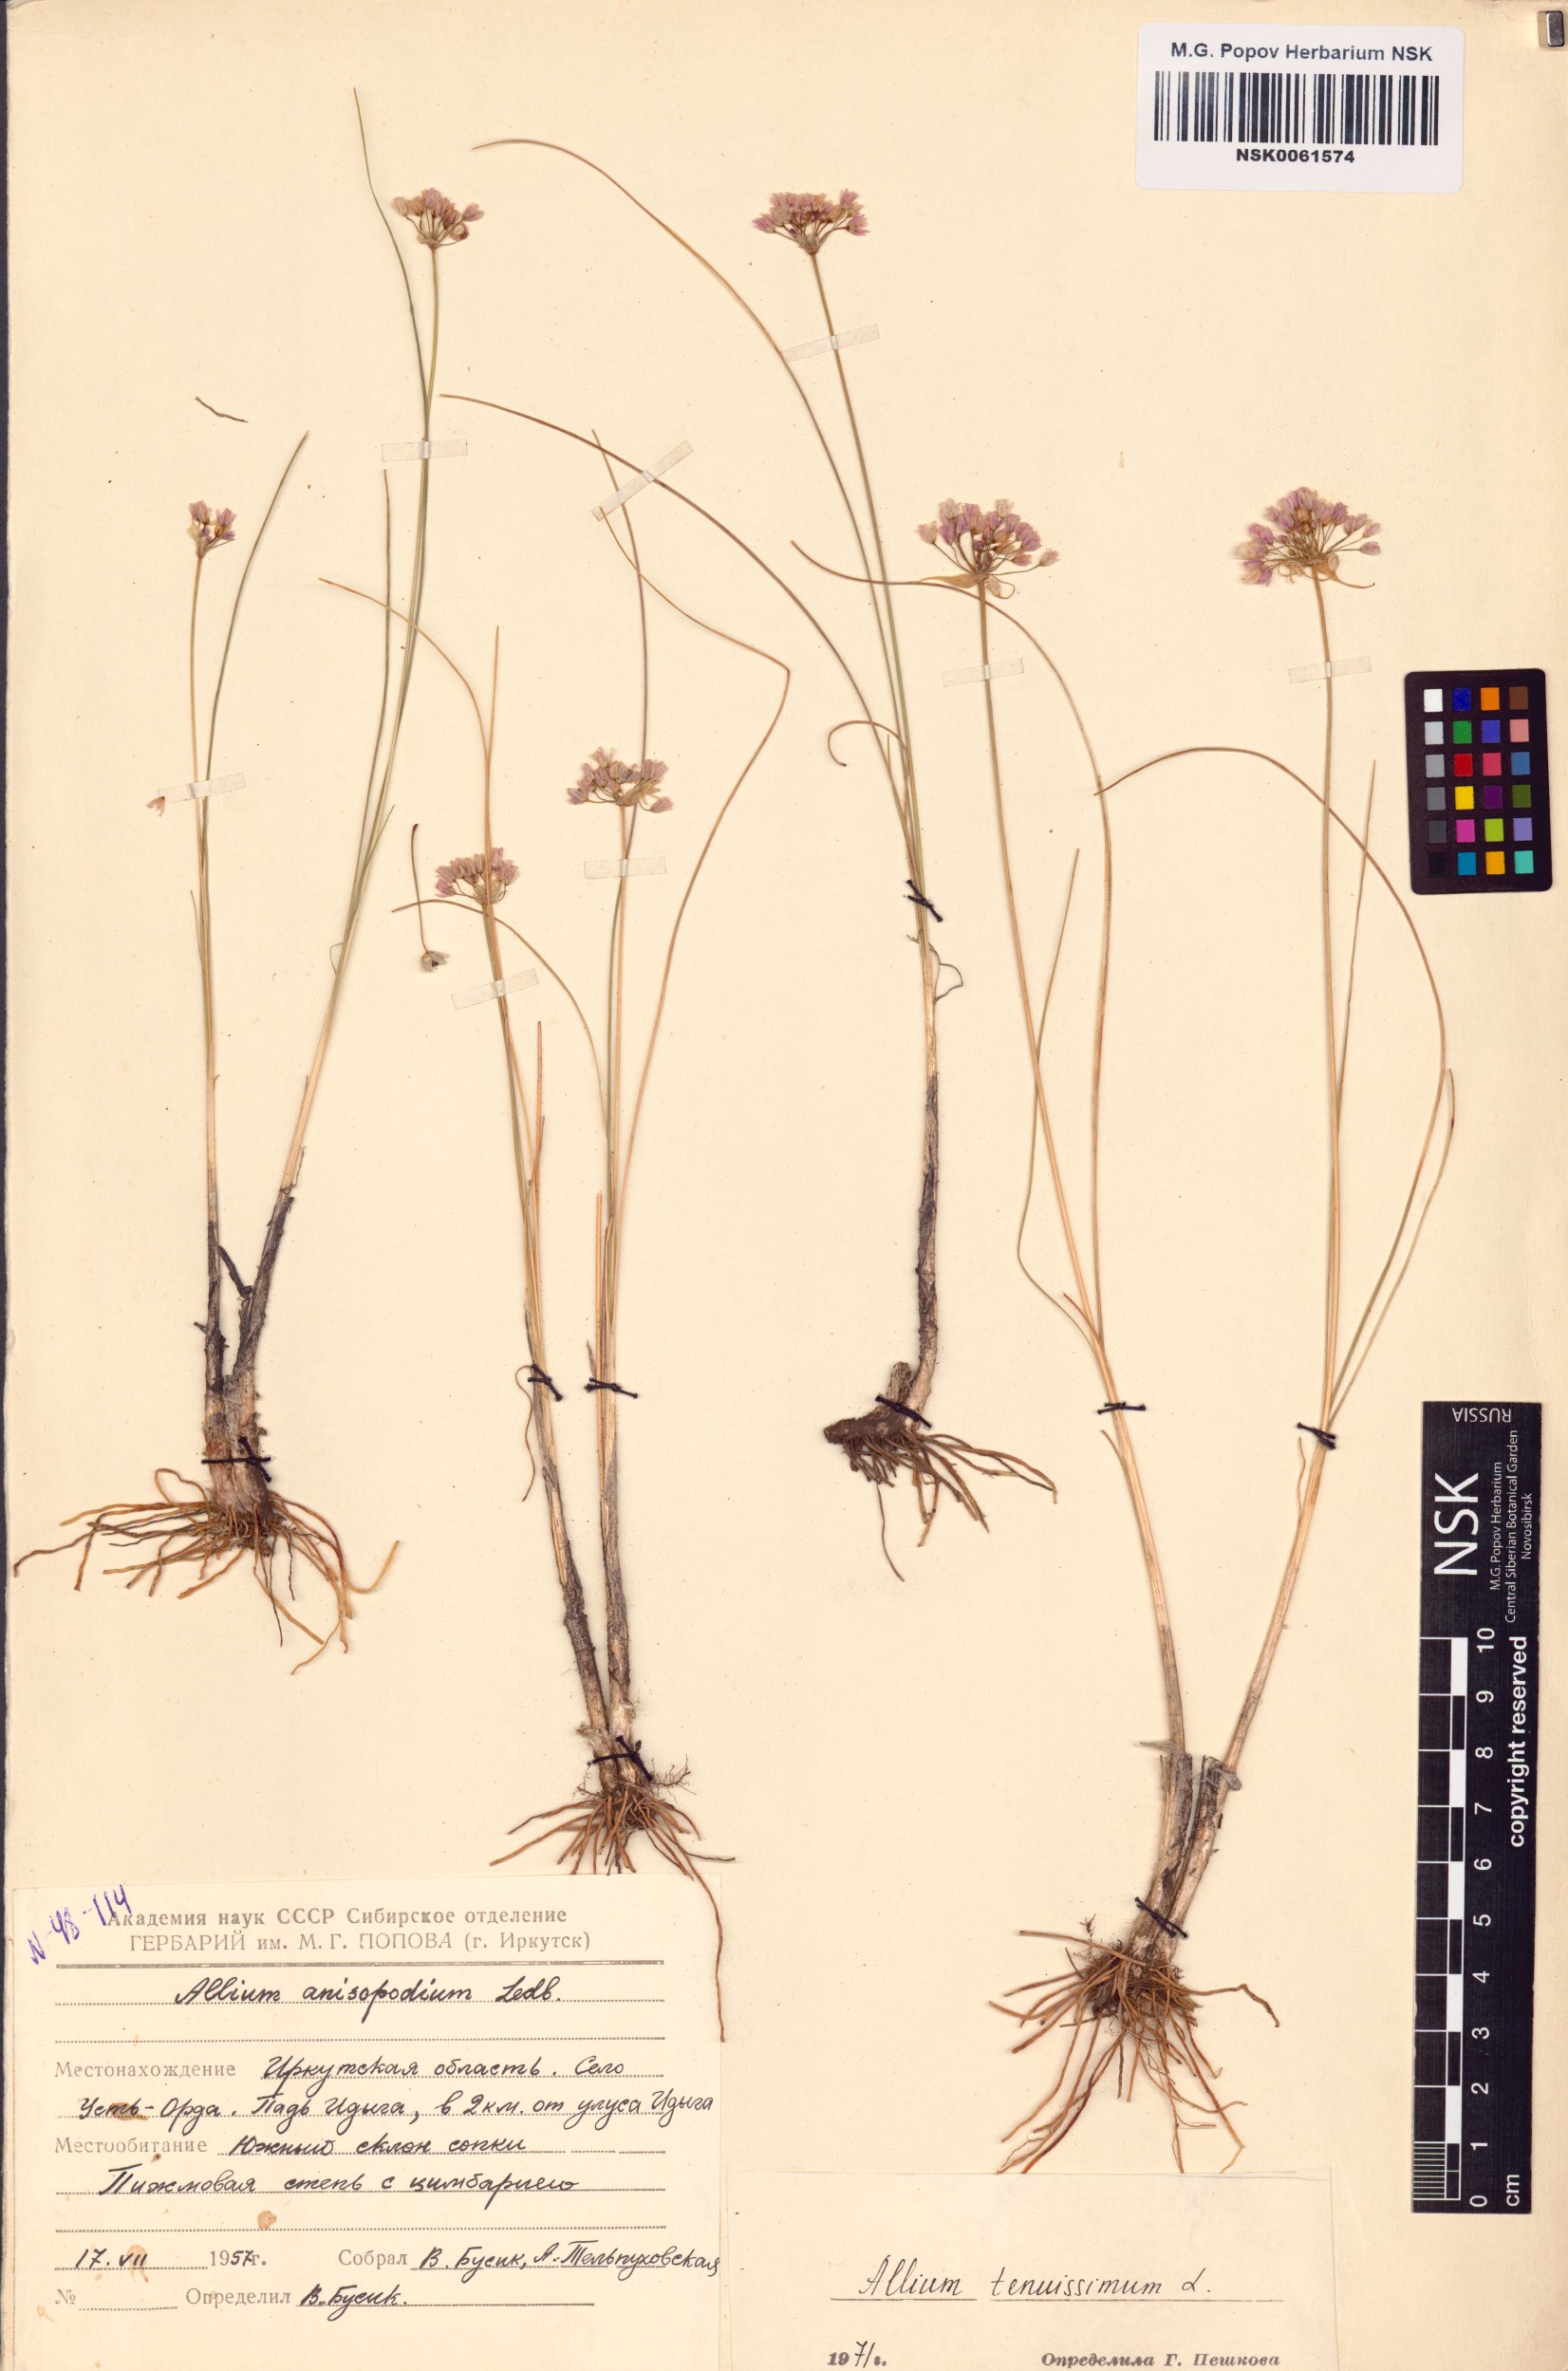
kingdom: Plantae
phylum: Tracheophyta
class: Liliopsida
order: Asparagales
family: Amaryllidaceae
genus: Allium
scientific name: Allium tenuissimum
